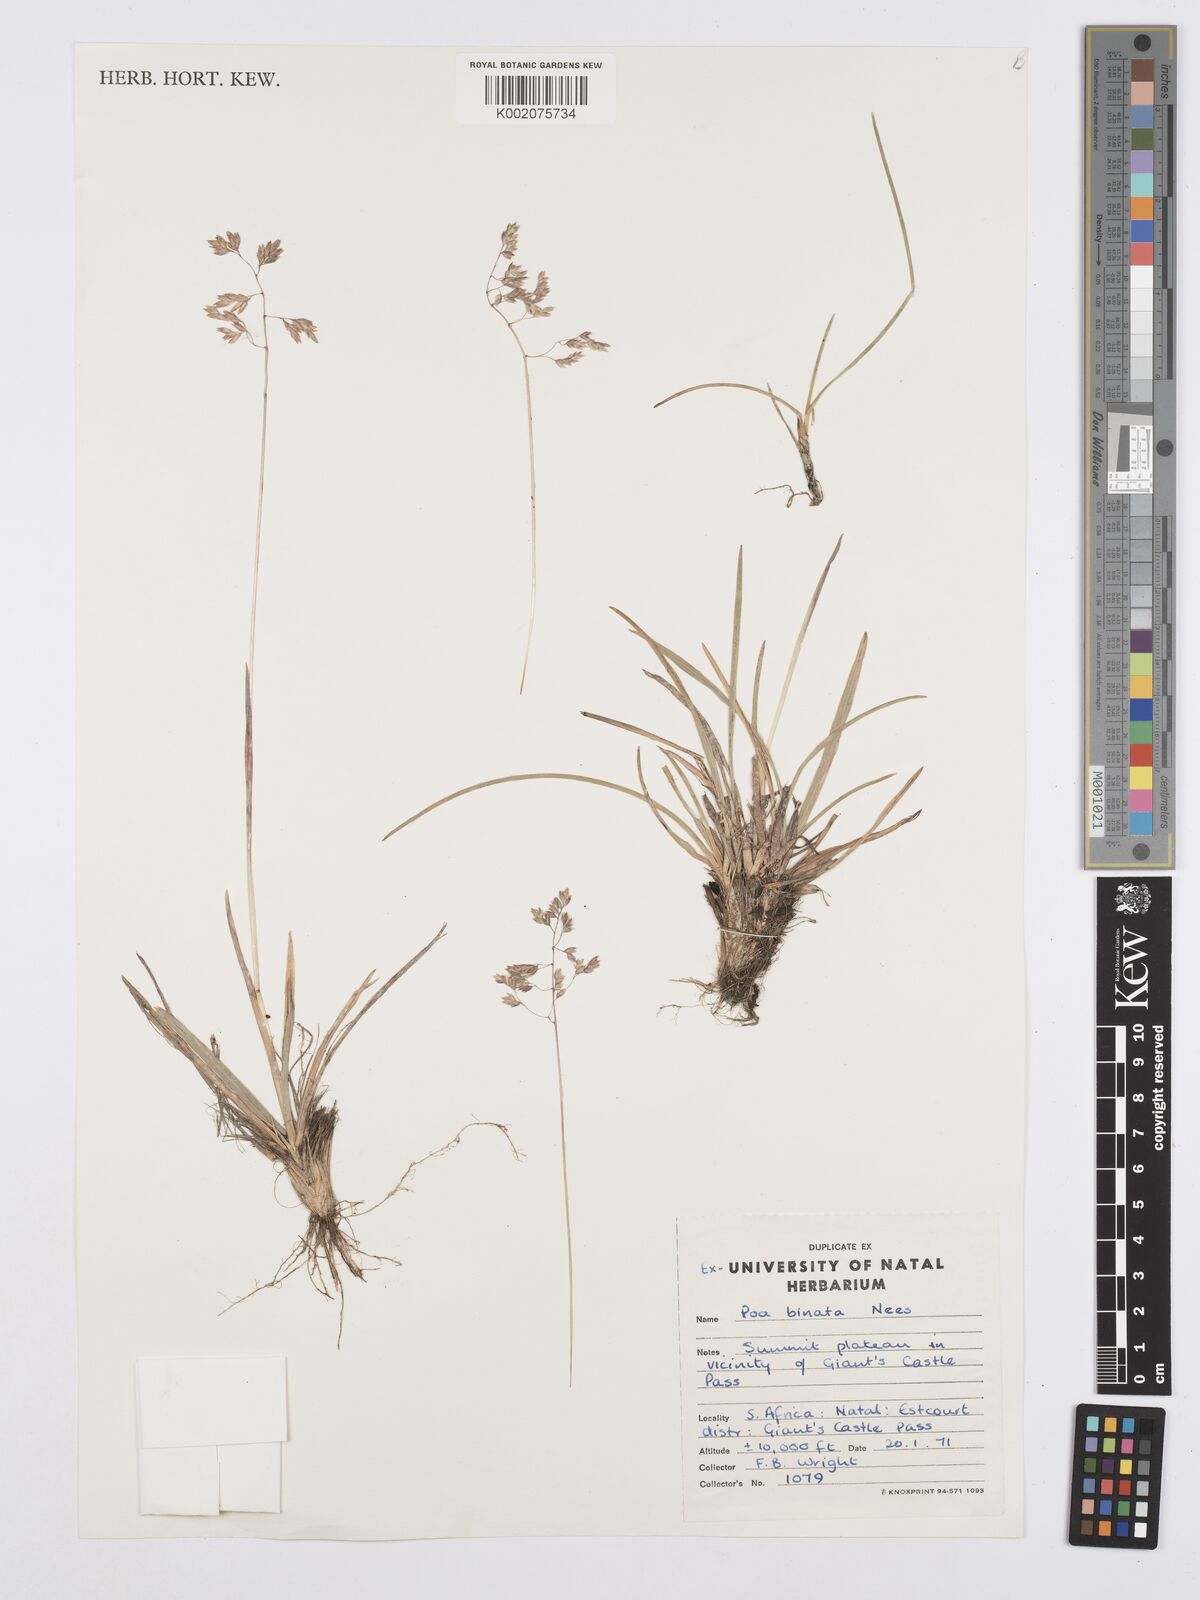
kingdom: Plantae
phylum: Tracheophyta
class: Liliopsida
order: Poales
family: Poaceae
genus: Poa
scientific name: Poa binata
